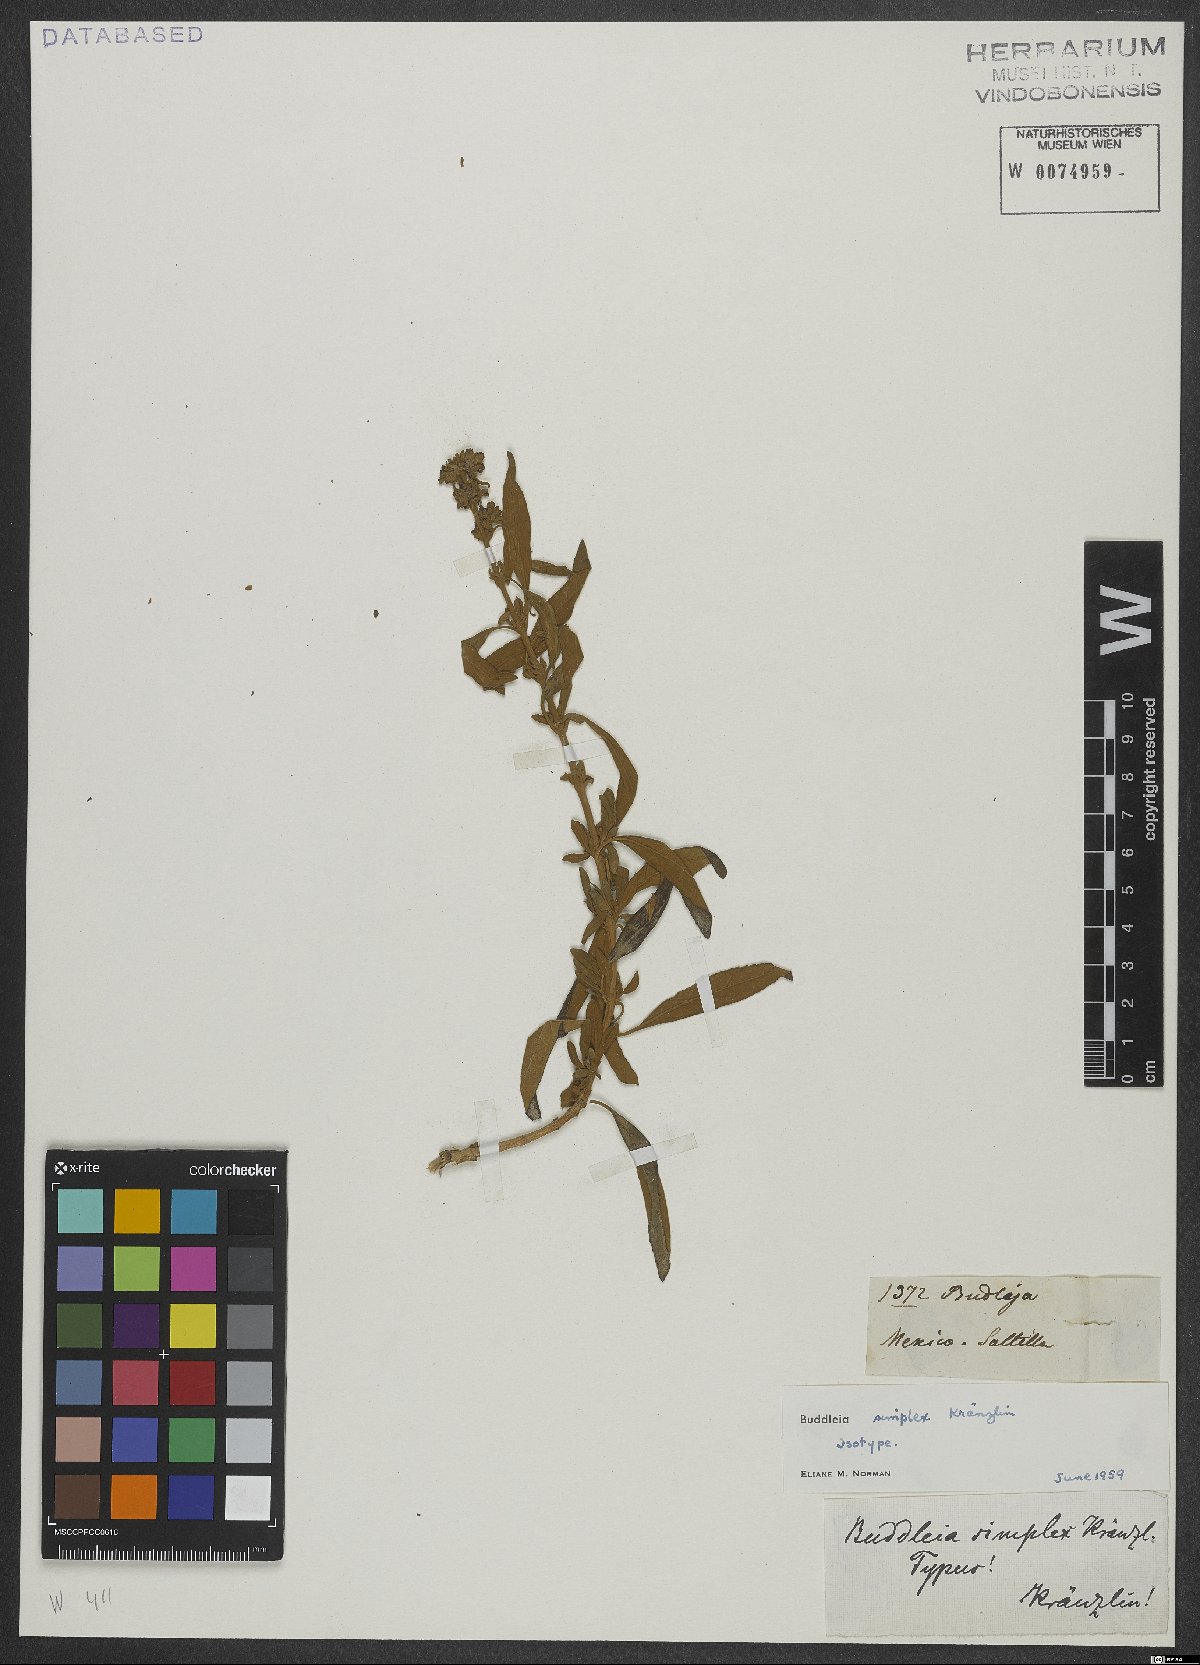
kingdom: Plantae
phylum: Tracheophyta
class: Magnoliopsida
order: Lamiales
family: Scrophulariaceae
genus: Buddleja
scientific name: Buddleja marrubiifolia
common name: Woolly butterfly-bush
